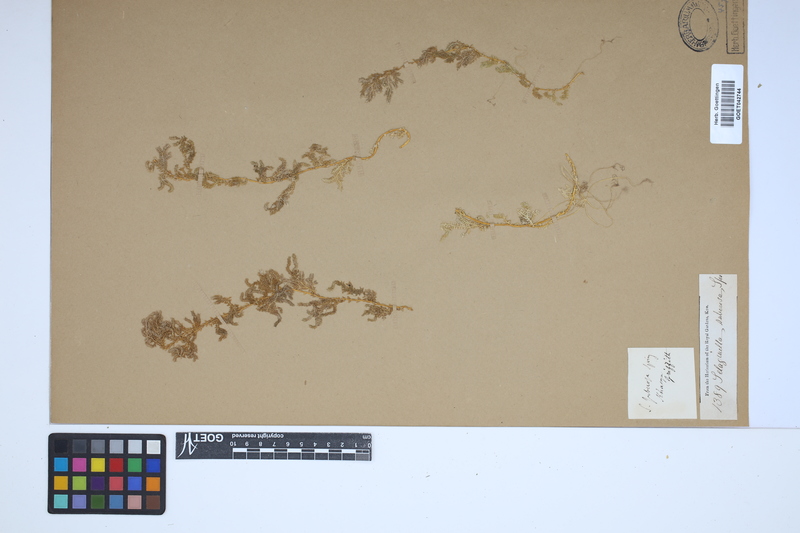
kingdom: Plantae
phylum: Tracheophyta
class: Lycopodiopsida
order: Selaginellales
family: Selaginellaceae
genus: Selaginella
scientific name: Selaginella pennata
